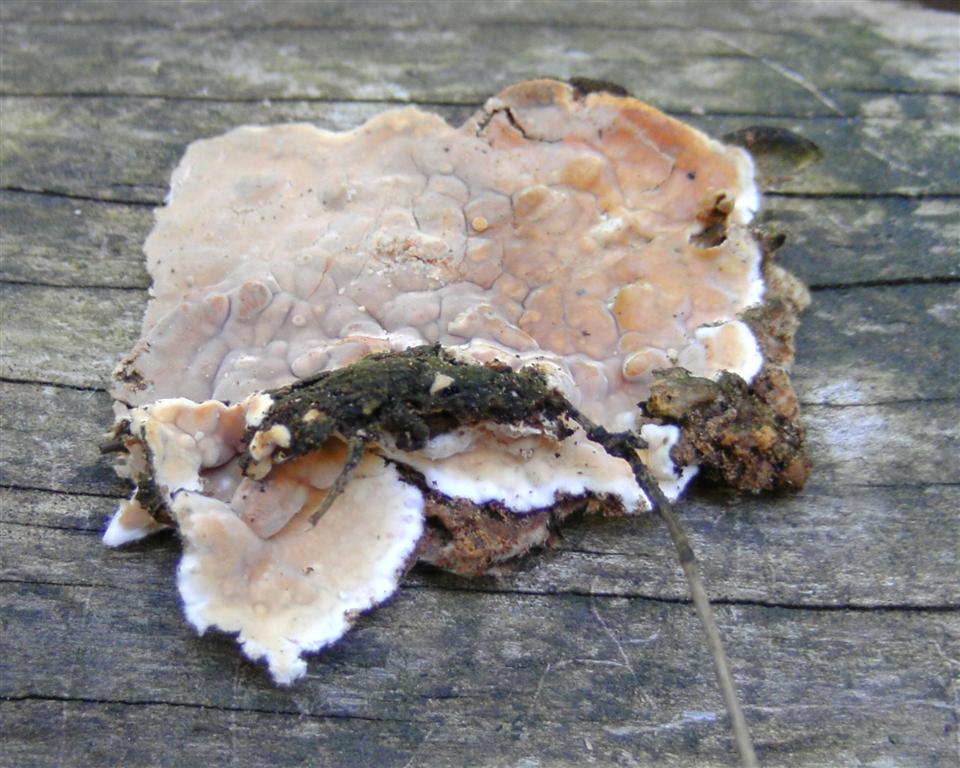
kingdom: Fungi
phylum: Basidiomycota
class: Agaricomycetes
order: Polyporales
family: Dacryobolaceae
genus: Dacryobolus
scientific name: Dacryobolus karstenii
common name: glat vulkanskorpe
